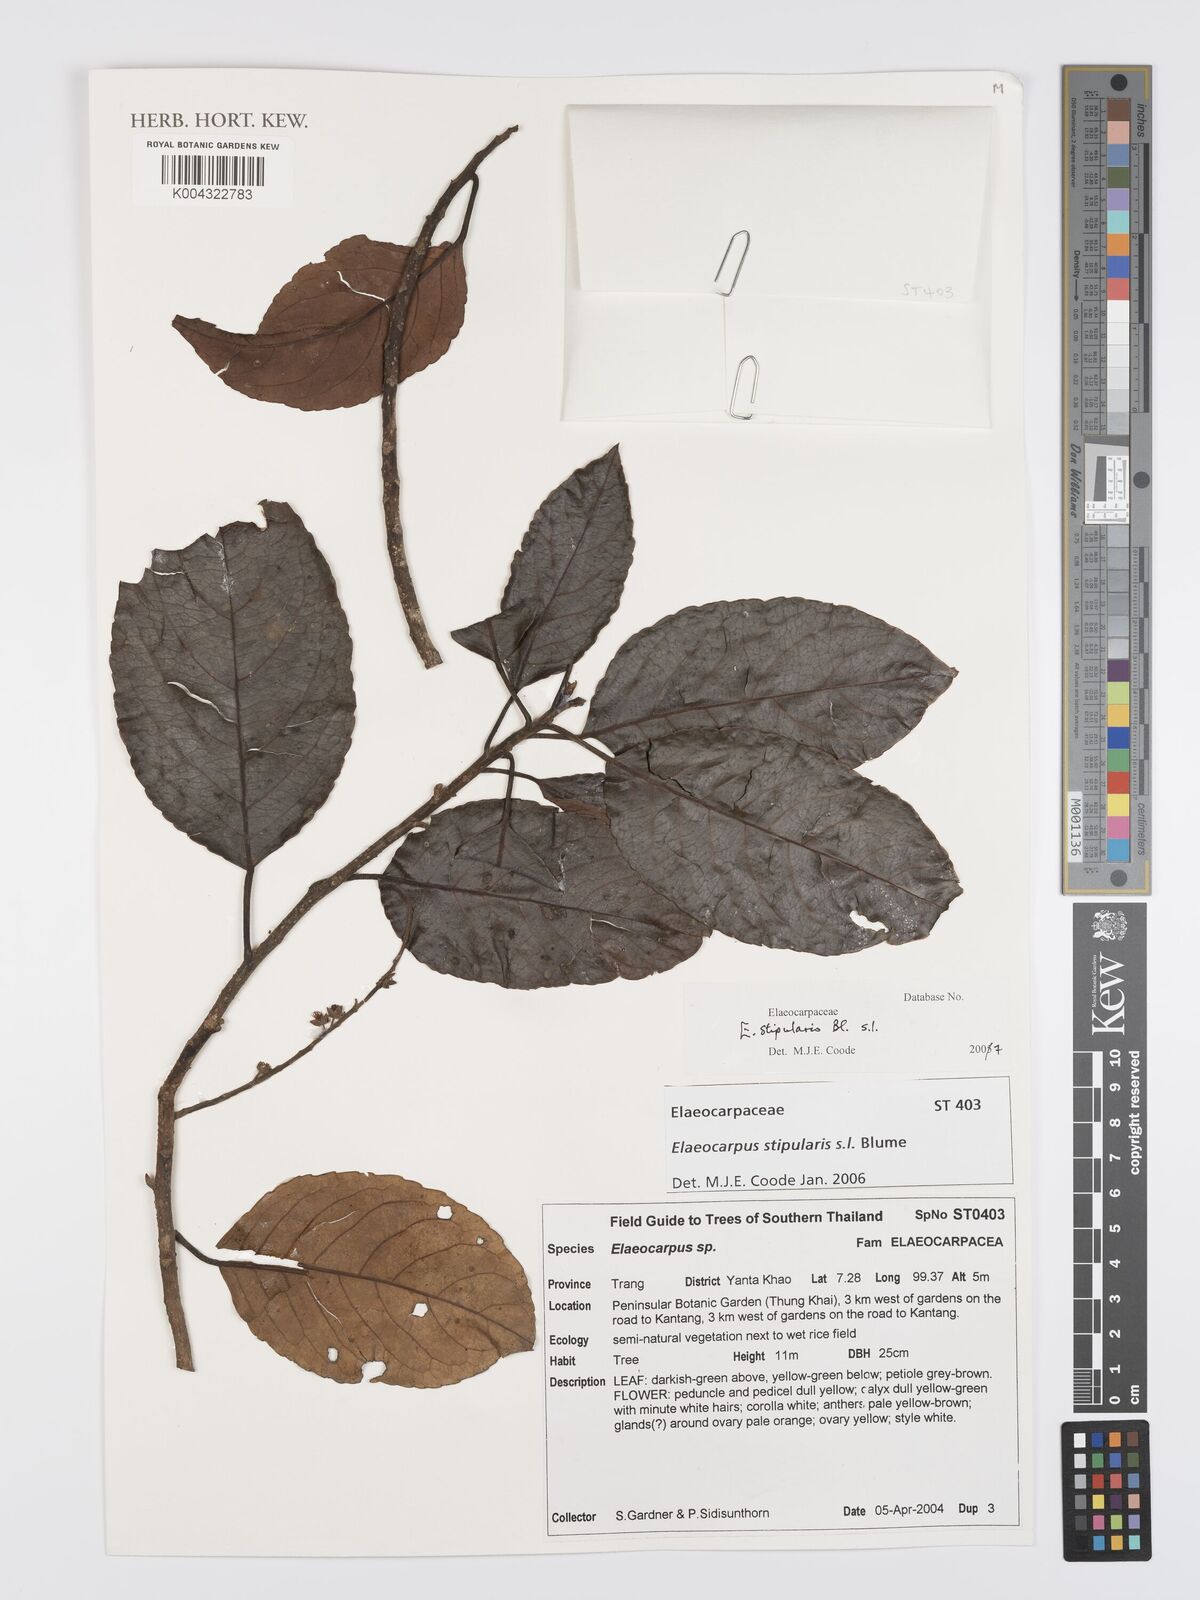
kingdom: Plantae
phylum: Tracheophyta
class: Magnoliopsida
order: Oxalidales
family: Elaeocarpaceae
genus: Elaeocarpus
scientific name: Elaeocarpus stipularis
